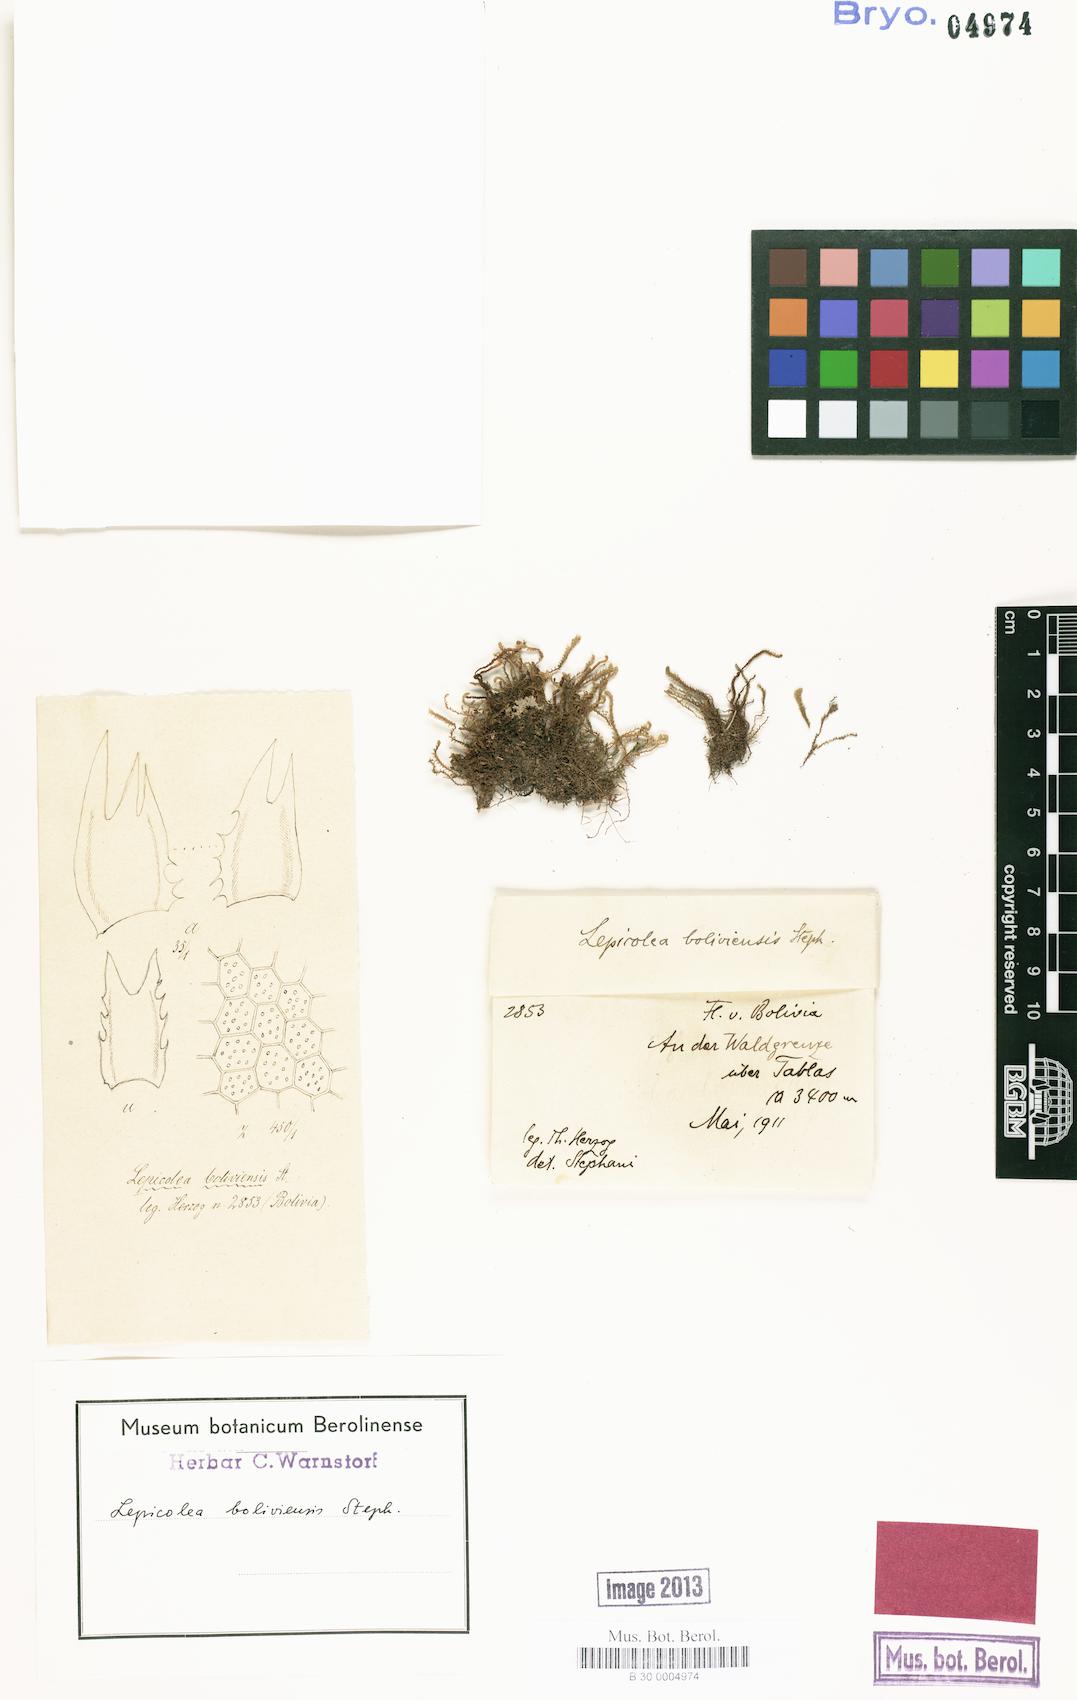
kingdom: Plantae
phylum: Marchantiophyta
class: Jungermanniopsida
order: Jungermanniales
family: Herbertaceae
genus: Triandrophyllum
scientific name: Triandrophyllum subtrifidum
